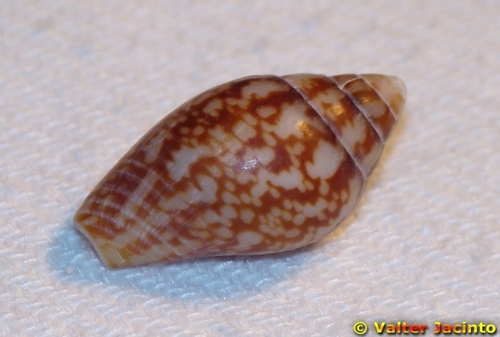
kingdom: Animalia
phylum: Mollusca
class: Gastropoda
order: Neogastropoda
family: Columbellidae
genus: Columbella
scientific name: Columbella rustica
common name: Rustic dove shell
